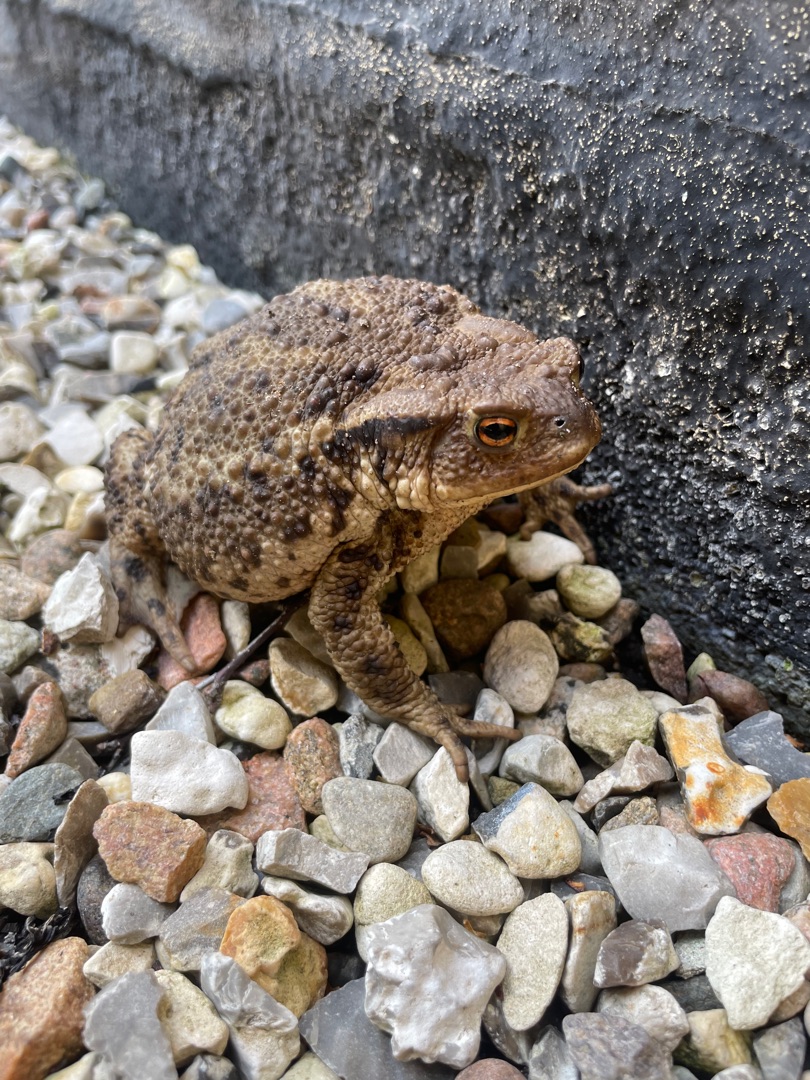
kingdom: Animalia
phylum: Chordata
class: Amphibia
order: Anura
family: Bufonidae
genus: Bufo
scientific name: Bufo bufo
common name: Skrubtudse
